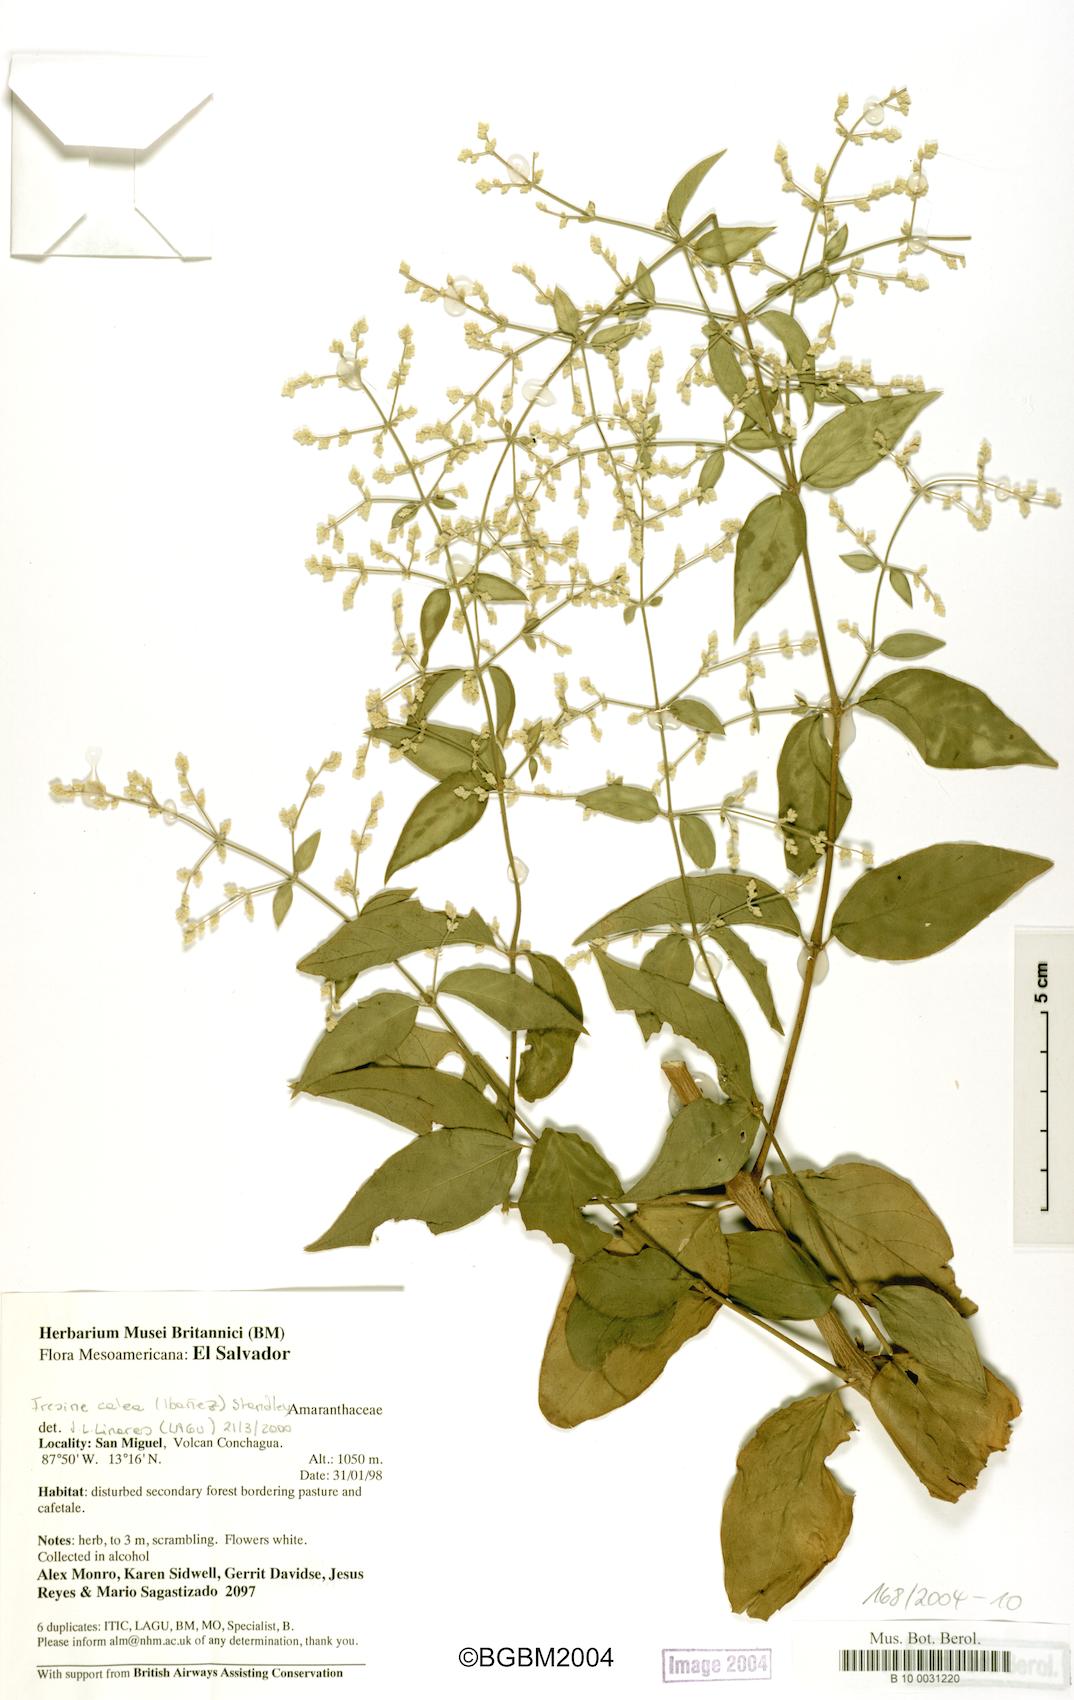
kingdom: Plantae
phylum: Tracheophyta
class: Magnoliopsida
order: Caryophyllales
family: Amaranthaceae
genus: Iresine
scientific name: Iresine latifolia
